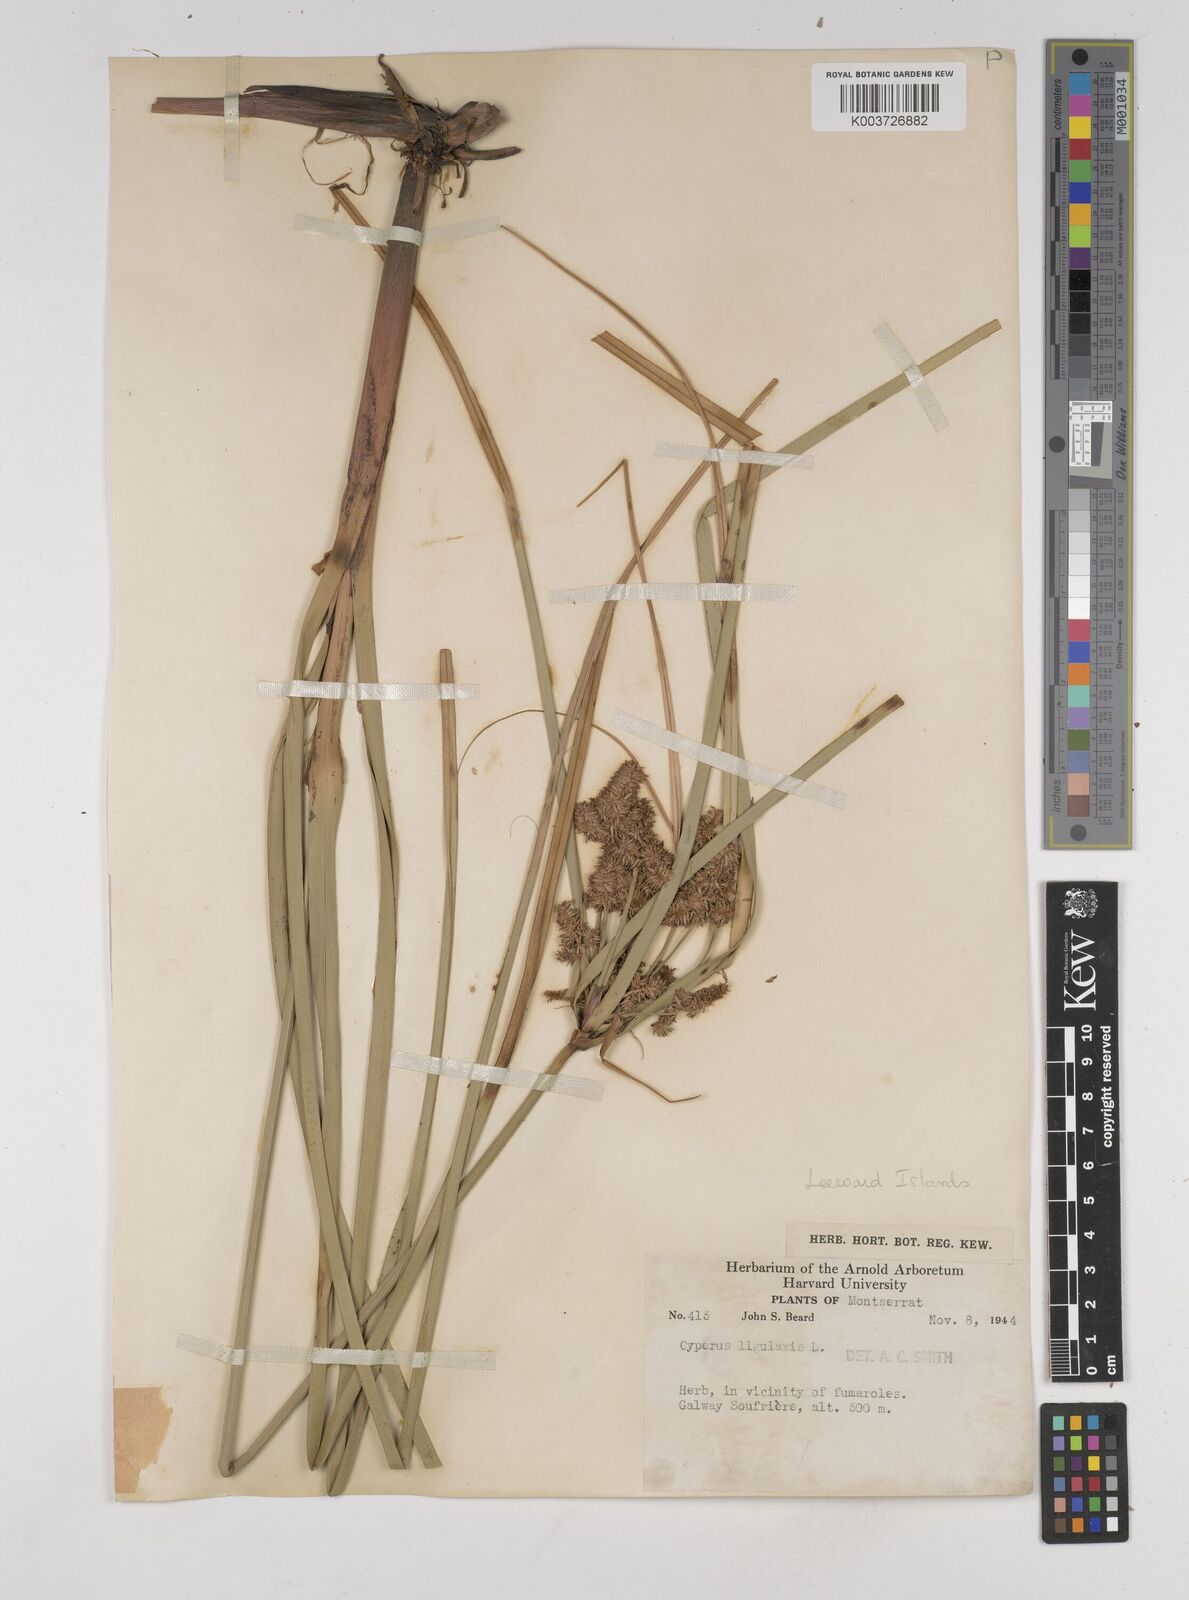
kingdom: Plantae
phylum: Tracheophyta
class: Liliopsida
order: Poales
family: Cyperaceae
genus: Cyperus
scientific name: Cyperus ligularis
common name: Swamp flat sedge
